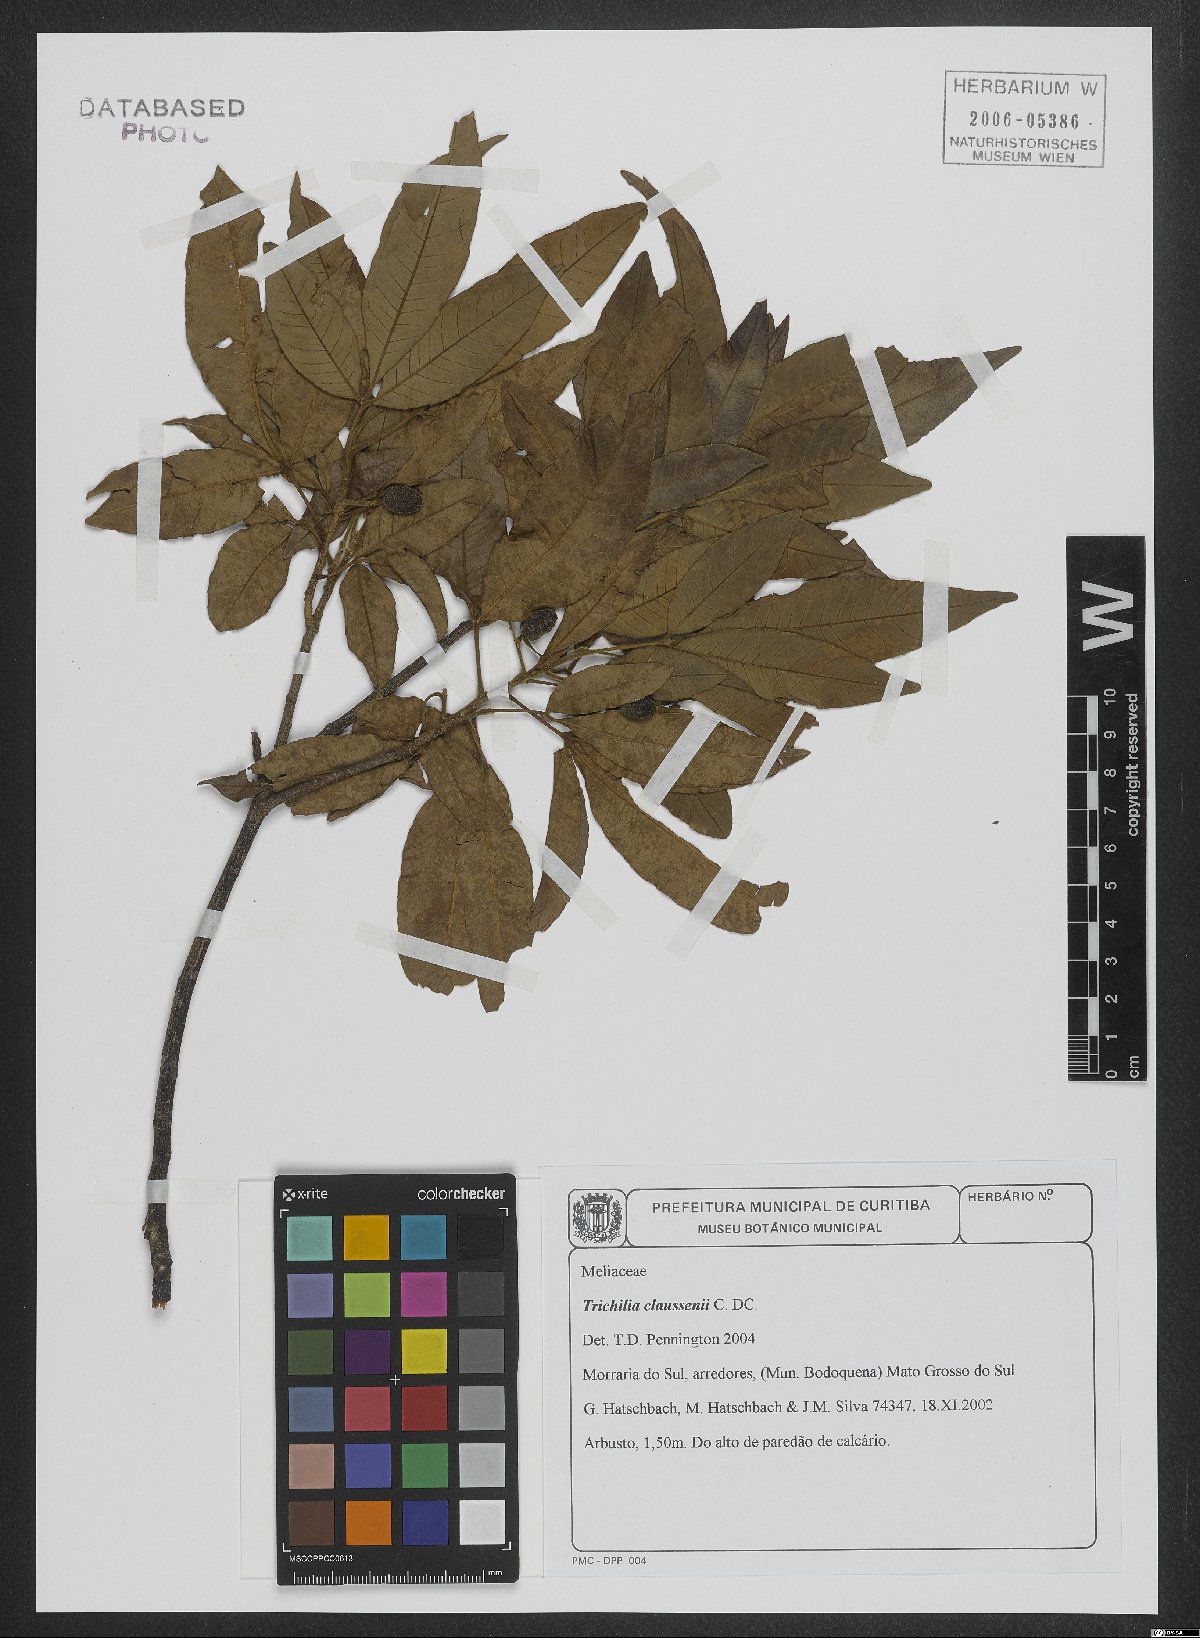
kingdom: Plantae
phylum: Tracheophyta
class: Magnoliopsida
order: Sapindales
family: Meliaceae
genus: Trichilia
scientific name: Trichilia claussenii
